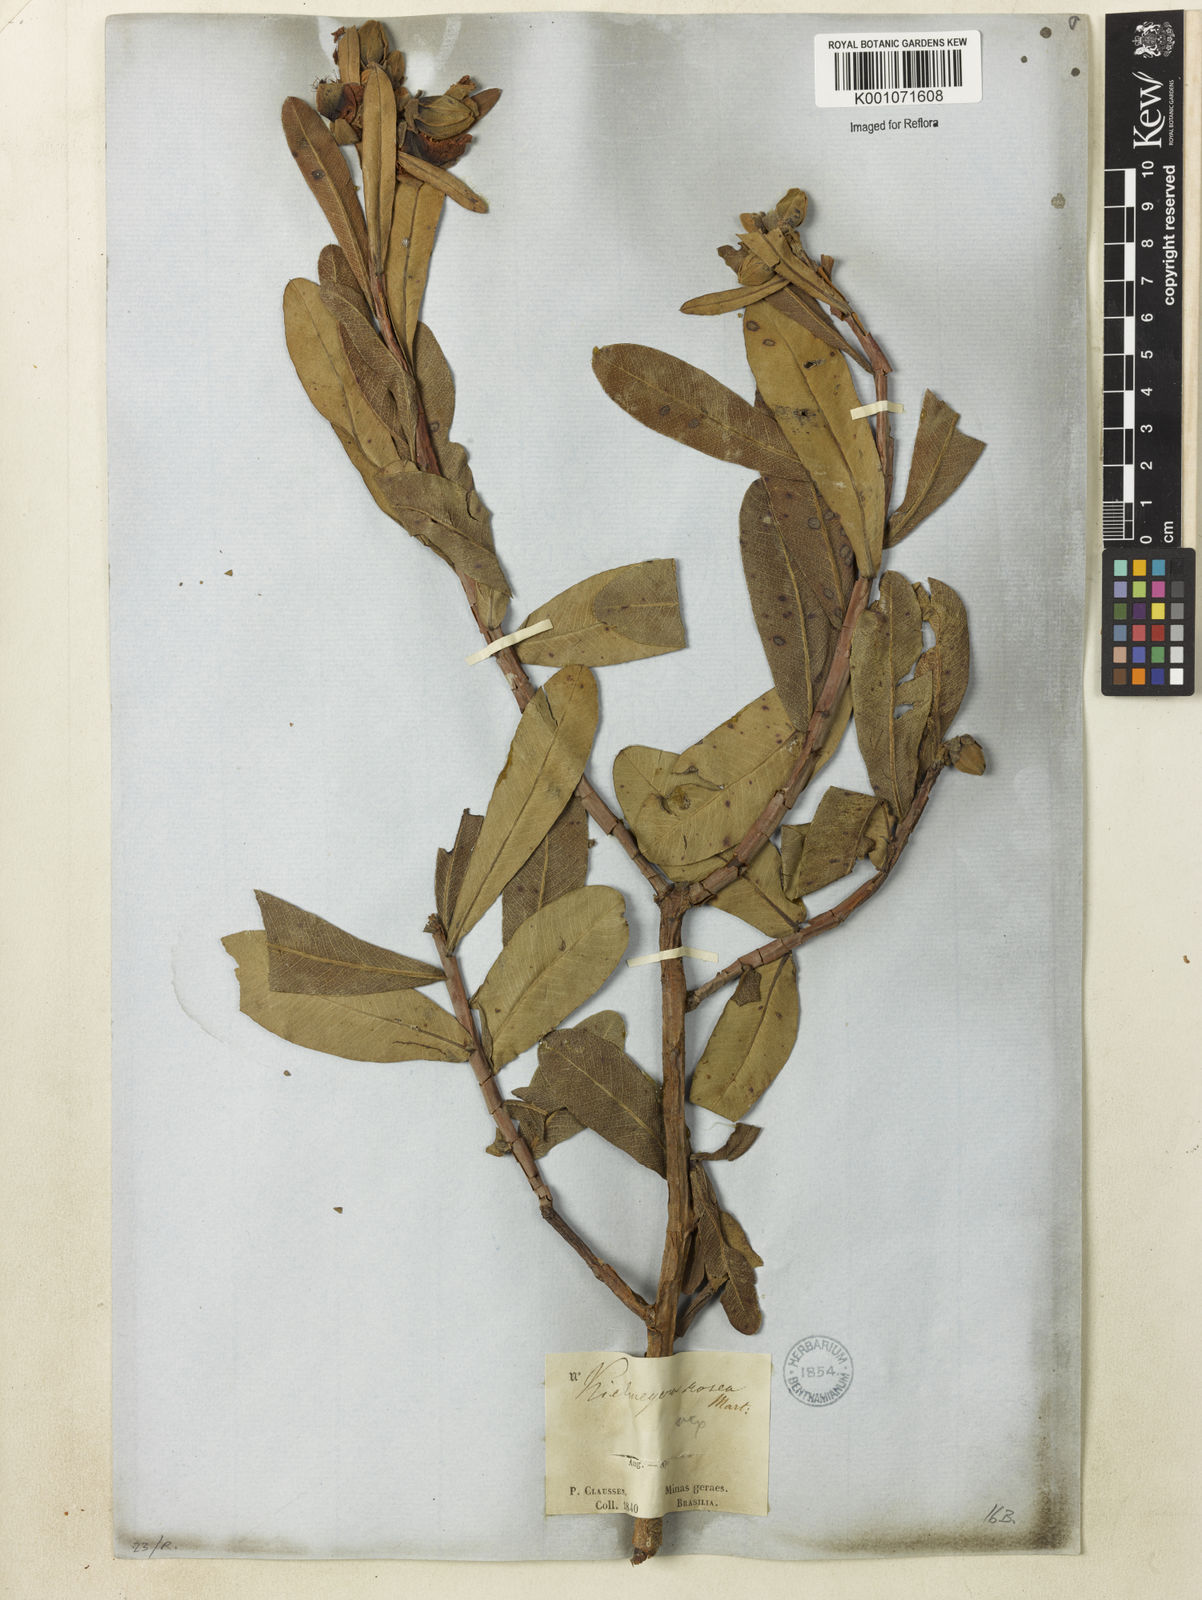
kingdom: Plantae
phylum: Tracheophyta
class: Magnoliopsida
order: Malpighiales
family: Calophyllaceae
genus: Kielmeyera
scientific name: Kielmeyera rubriflora
